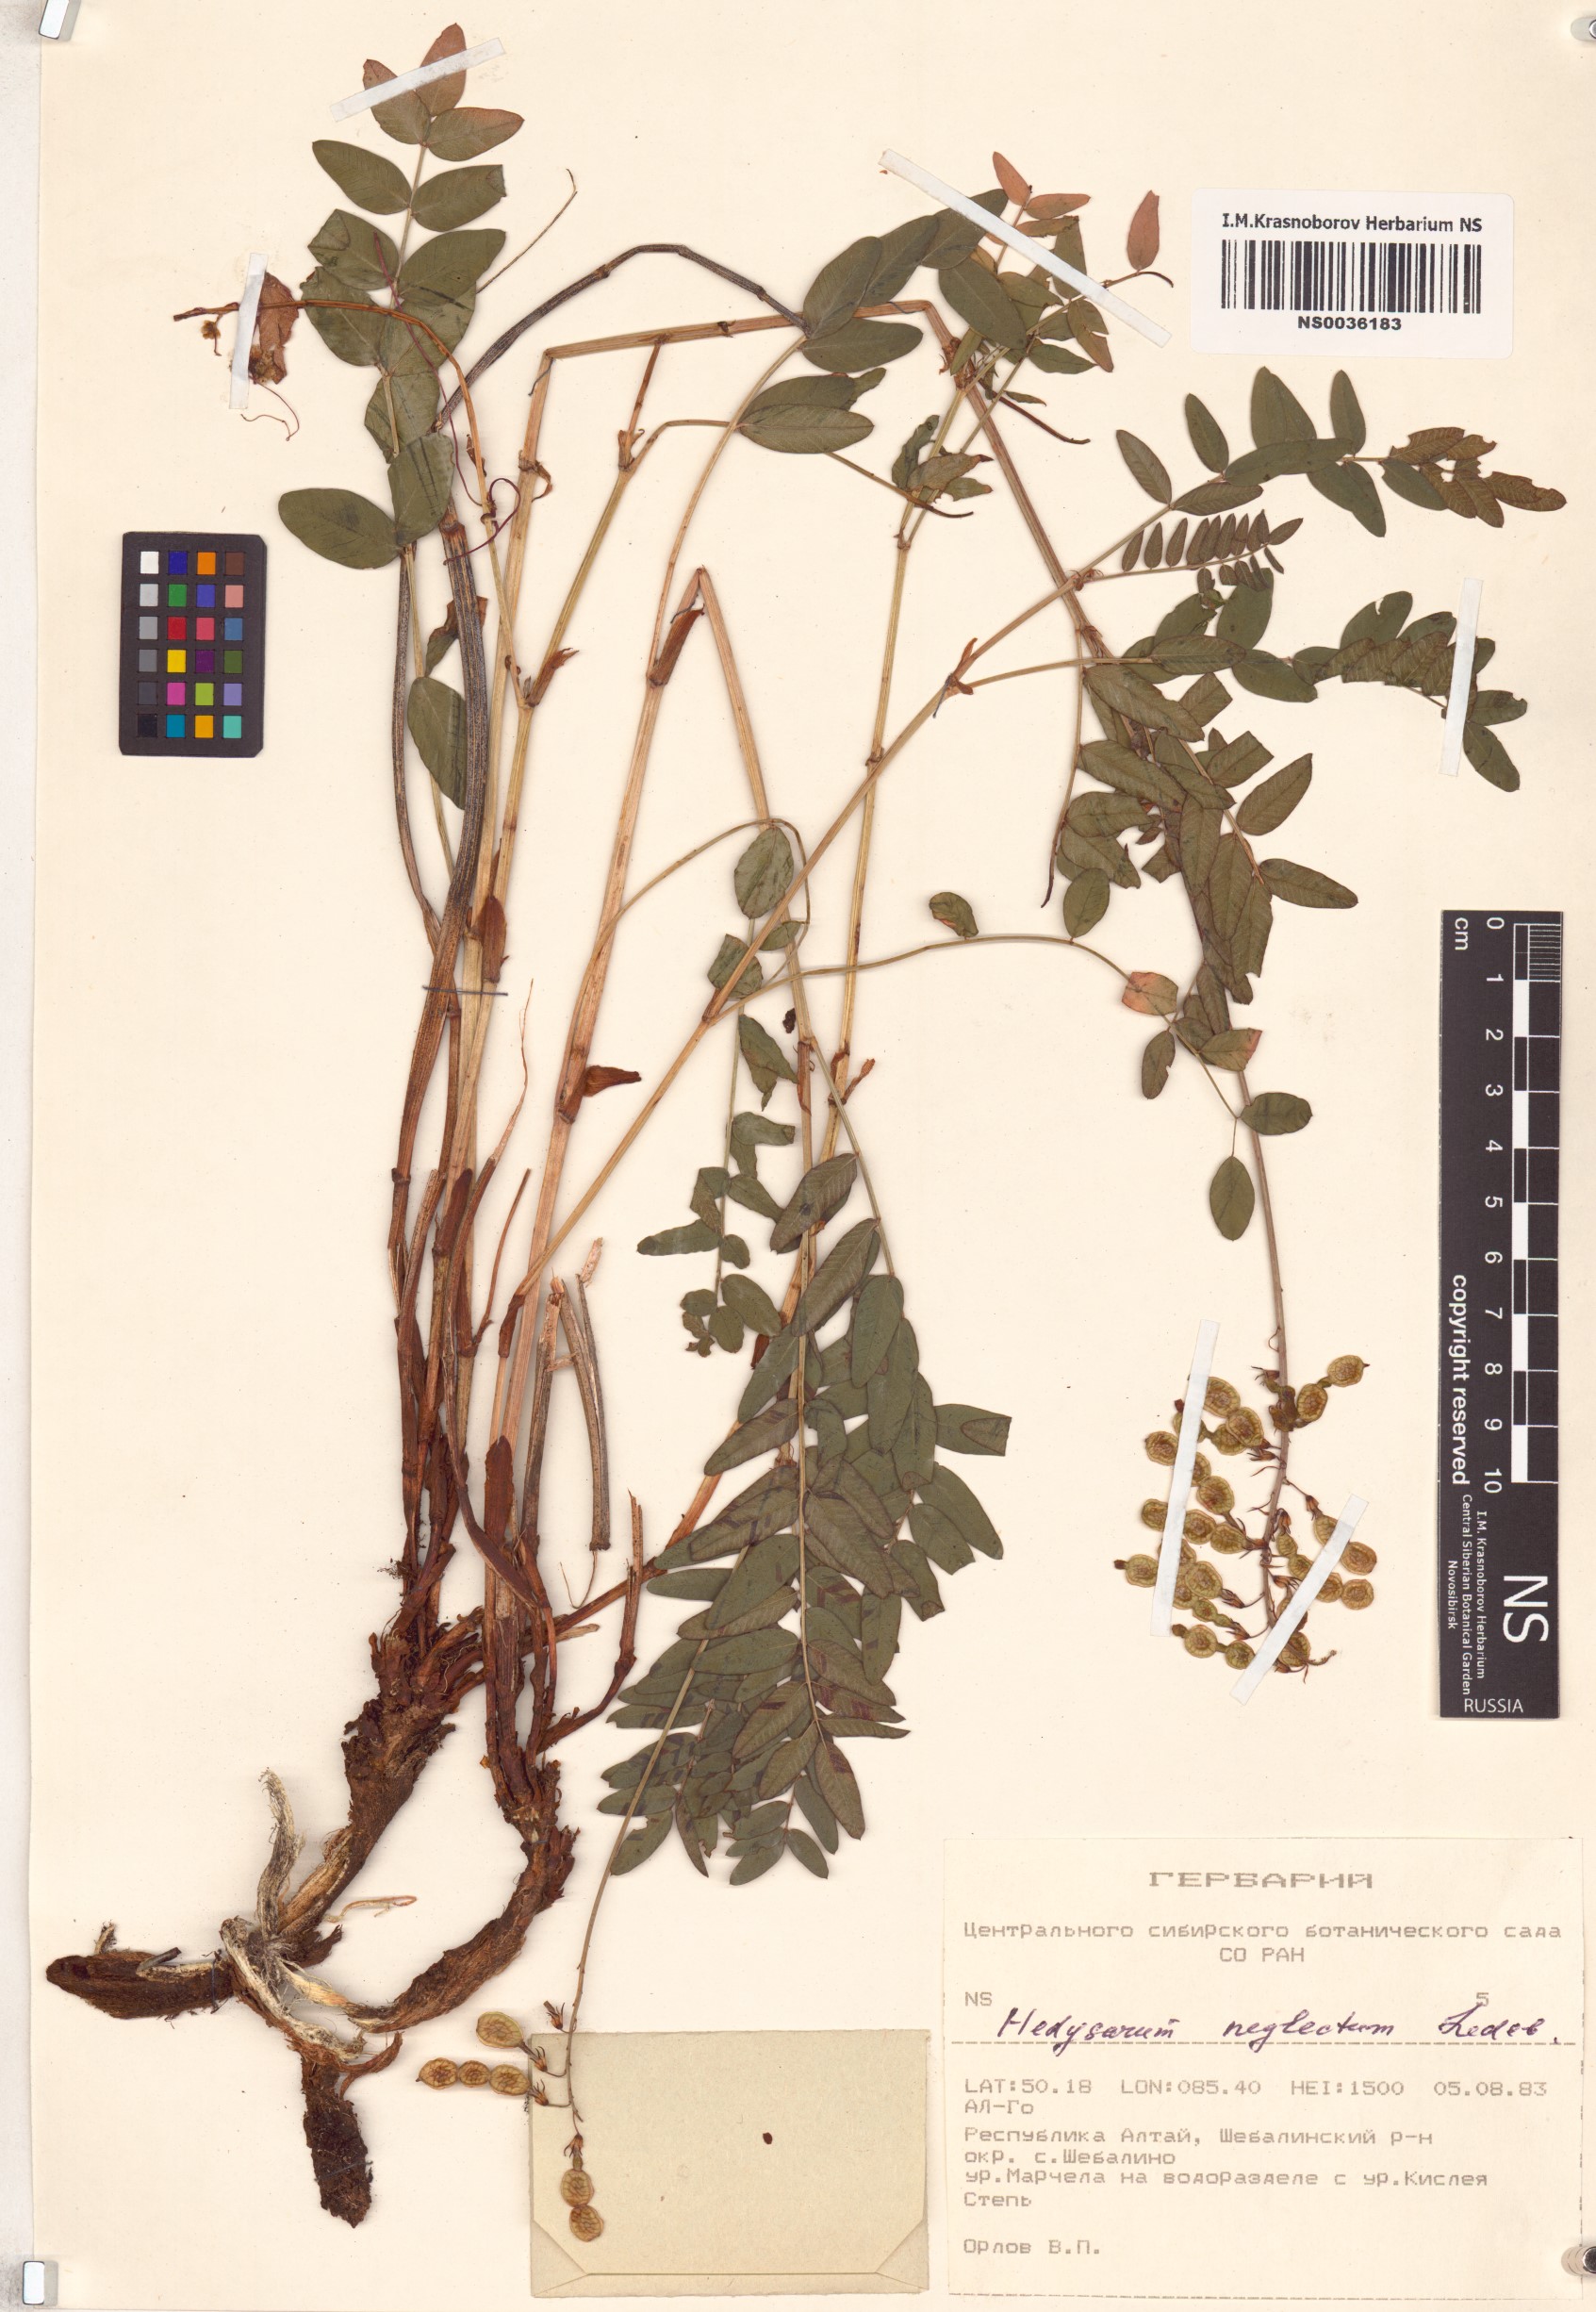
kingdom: Plantae
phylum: Tracheophyta
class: Magnoliopsida
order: Fabales
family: Fabaceae
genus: Hedysarum
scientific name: Hedysarum neglectum
